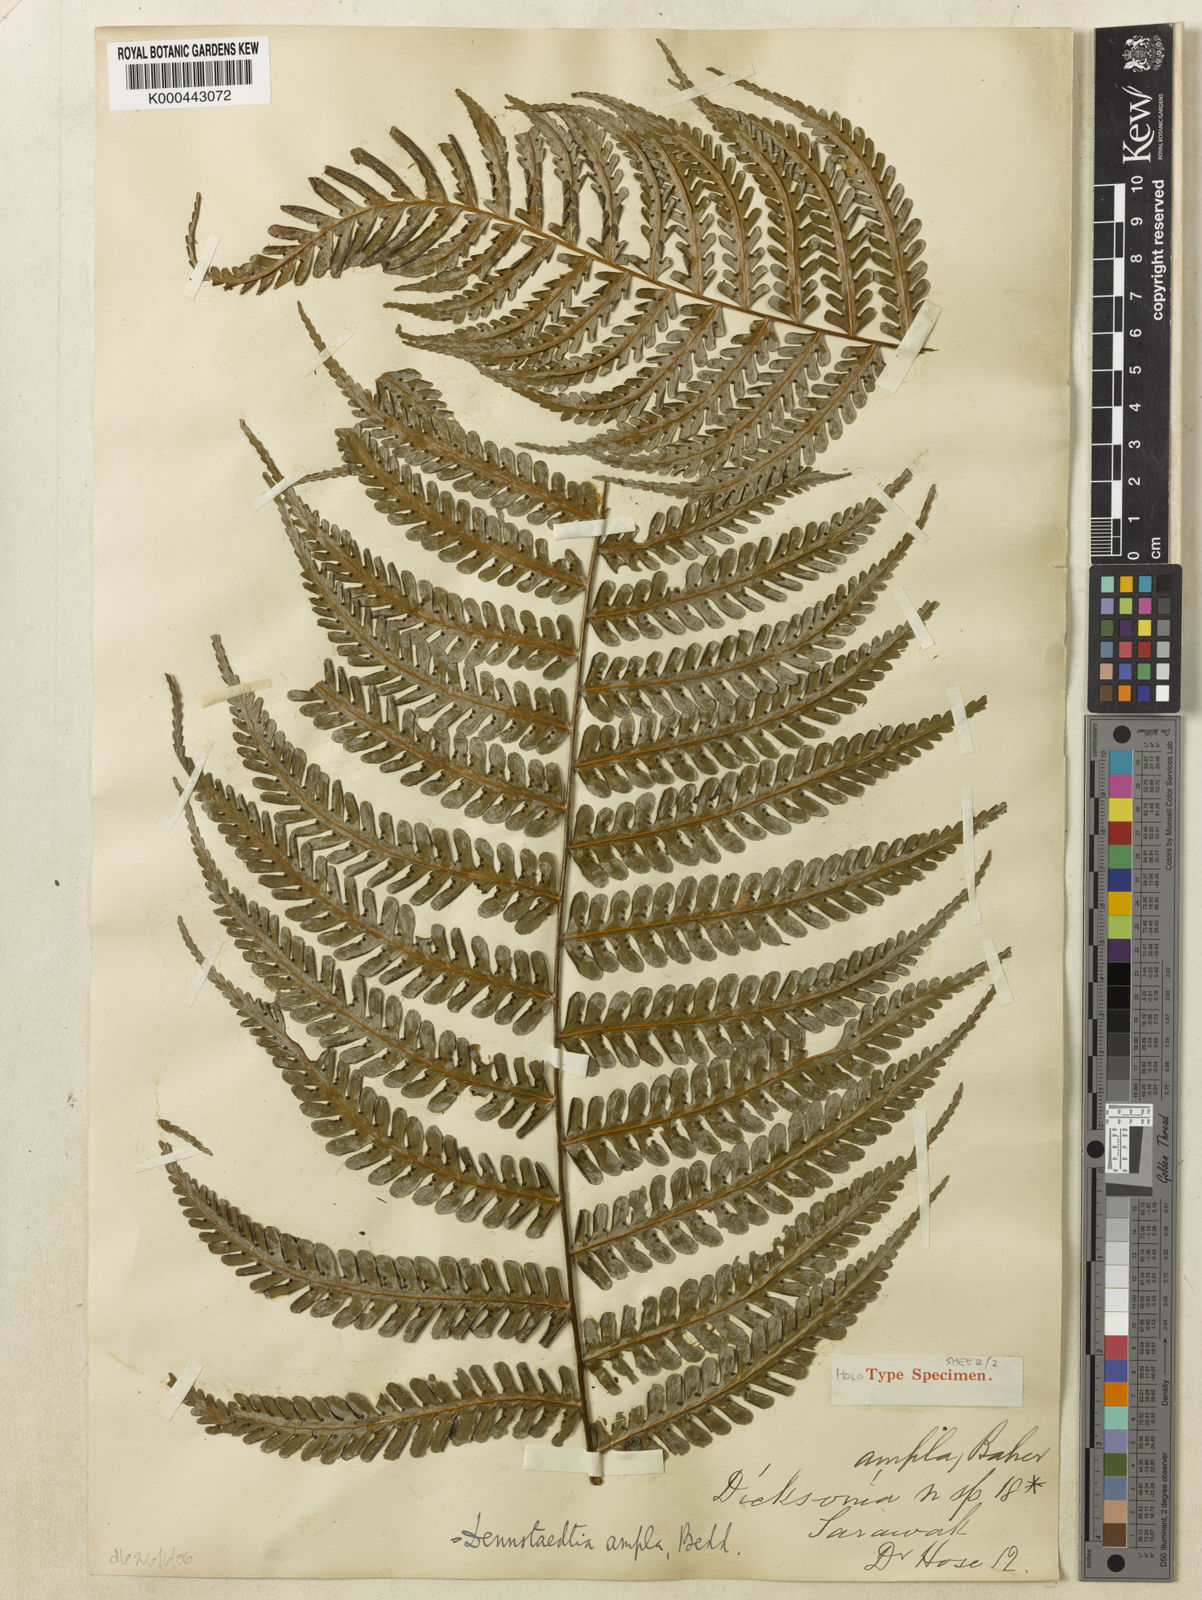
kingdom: Plantae
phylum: Tracheophyta
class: Polypodiopsida
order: Polypodiales
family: Dennstaedtiaceae
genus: Dennstaedtia
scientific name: Dennstaedtia ampla
